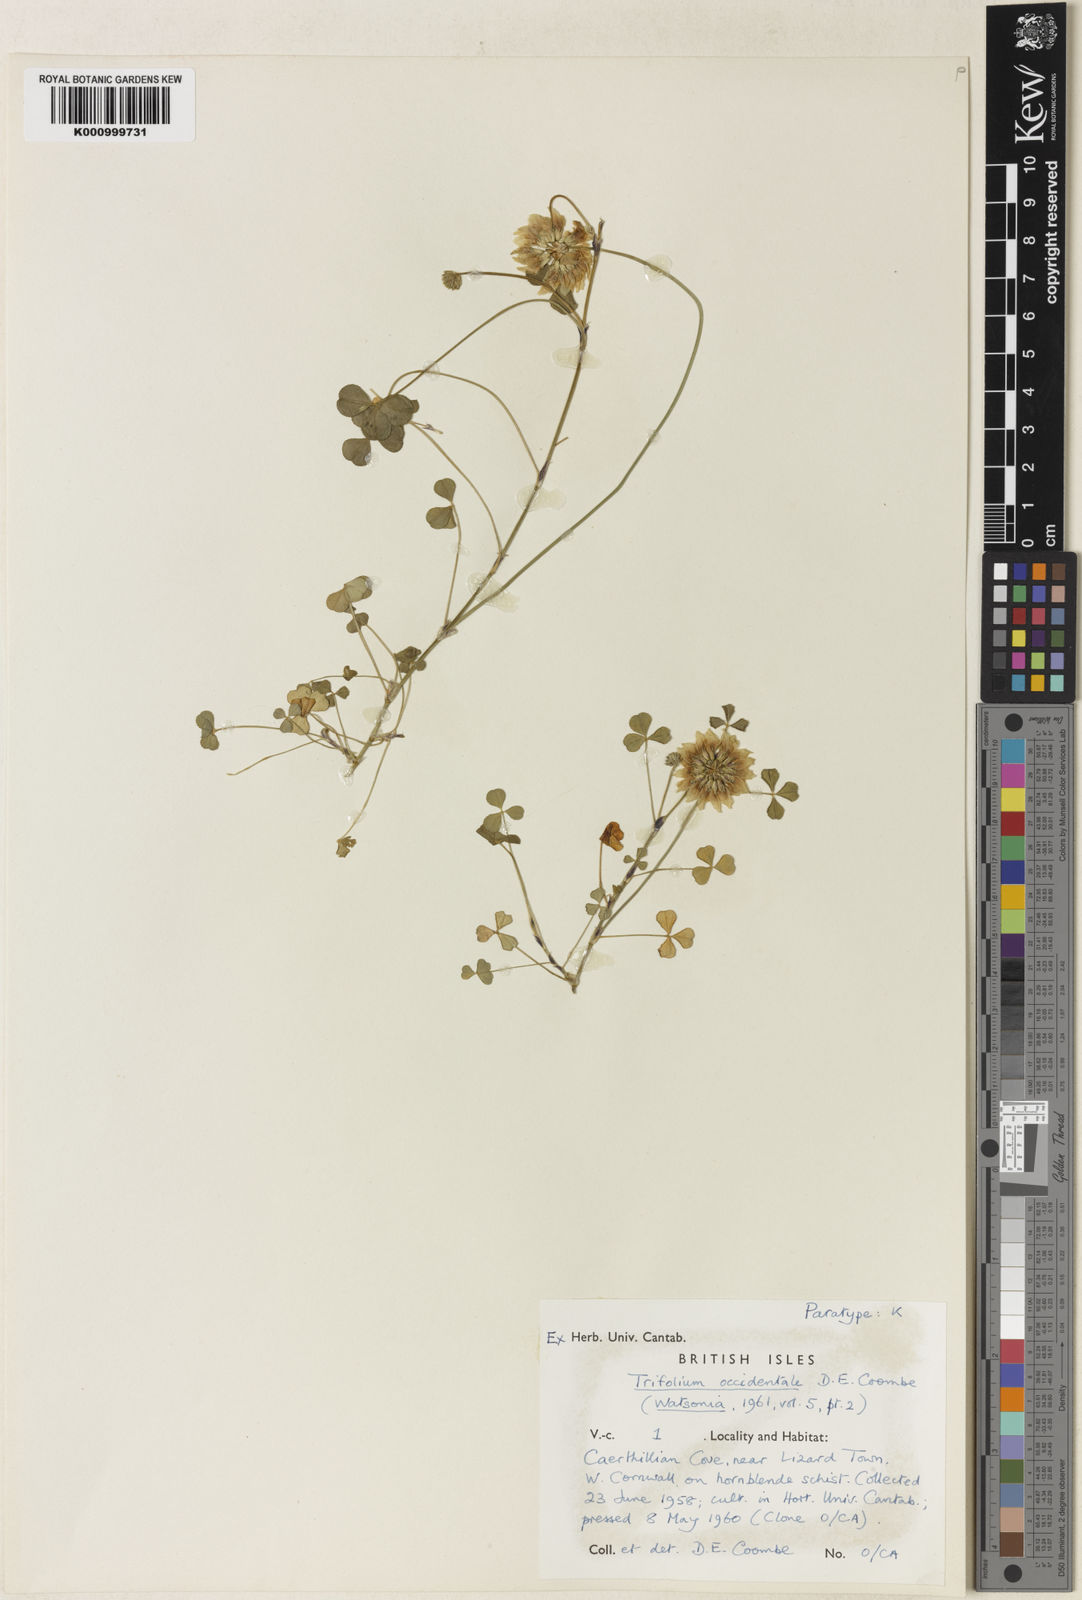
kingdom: Plantae
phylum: Tracheophyta
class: Magnoliopsida
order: Fabales
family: Fabaceae
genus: Trifolium
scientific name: Trifolium occidentale
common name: Western clover
